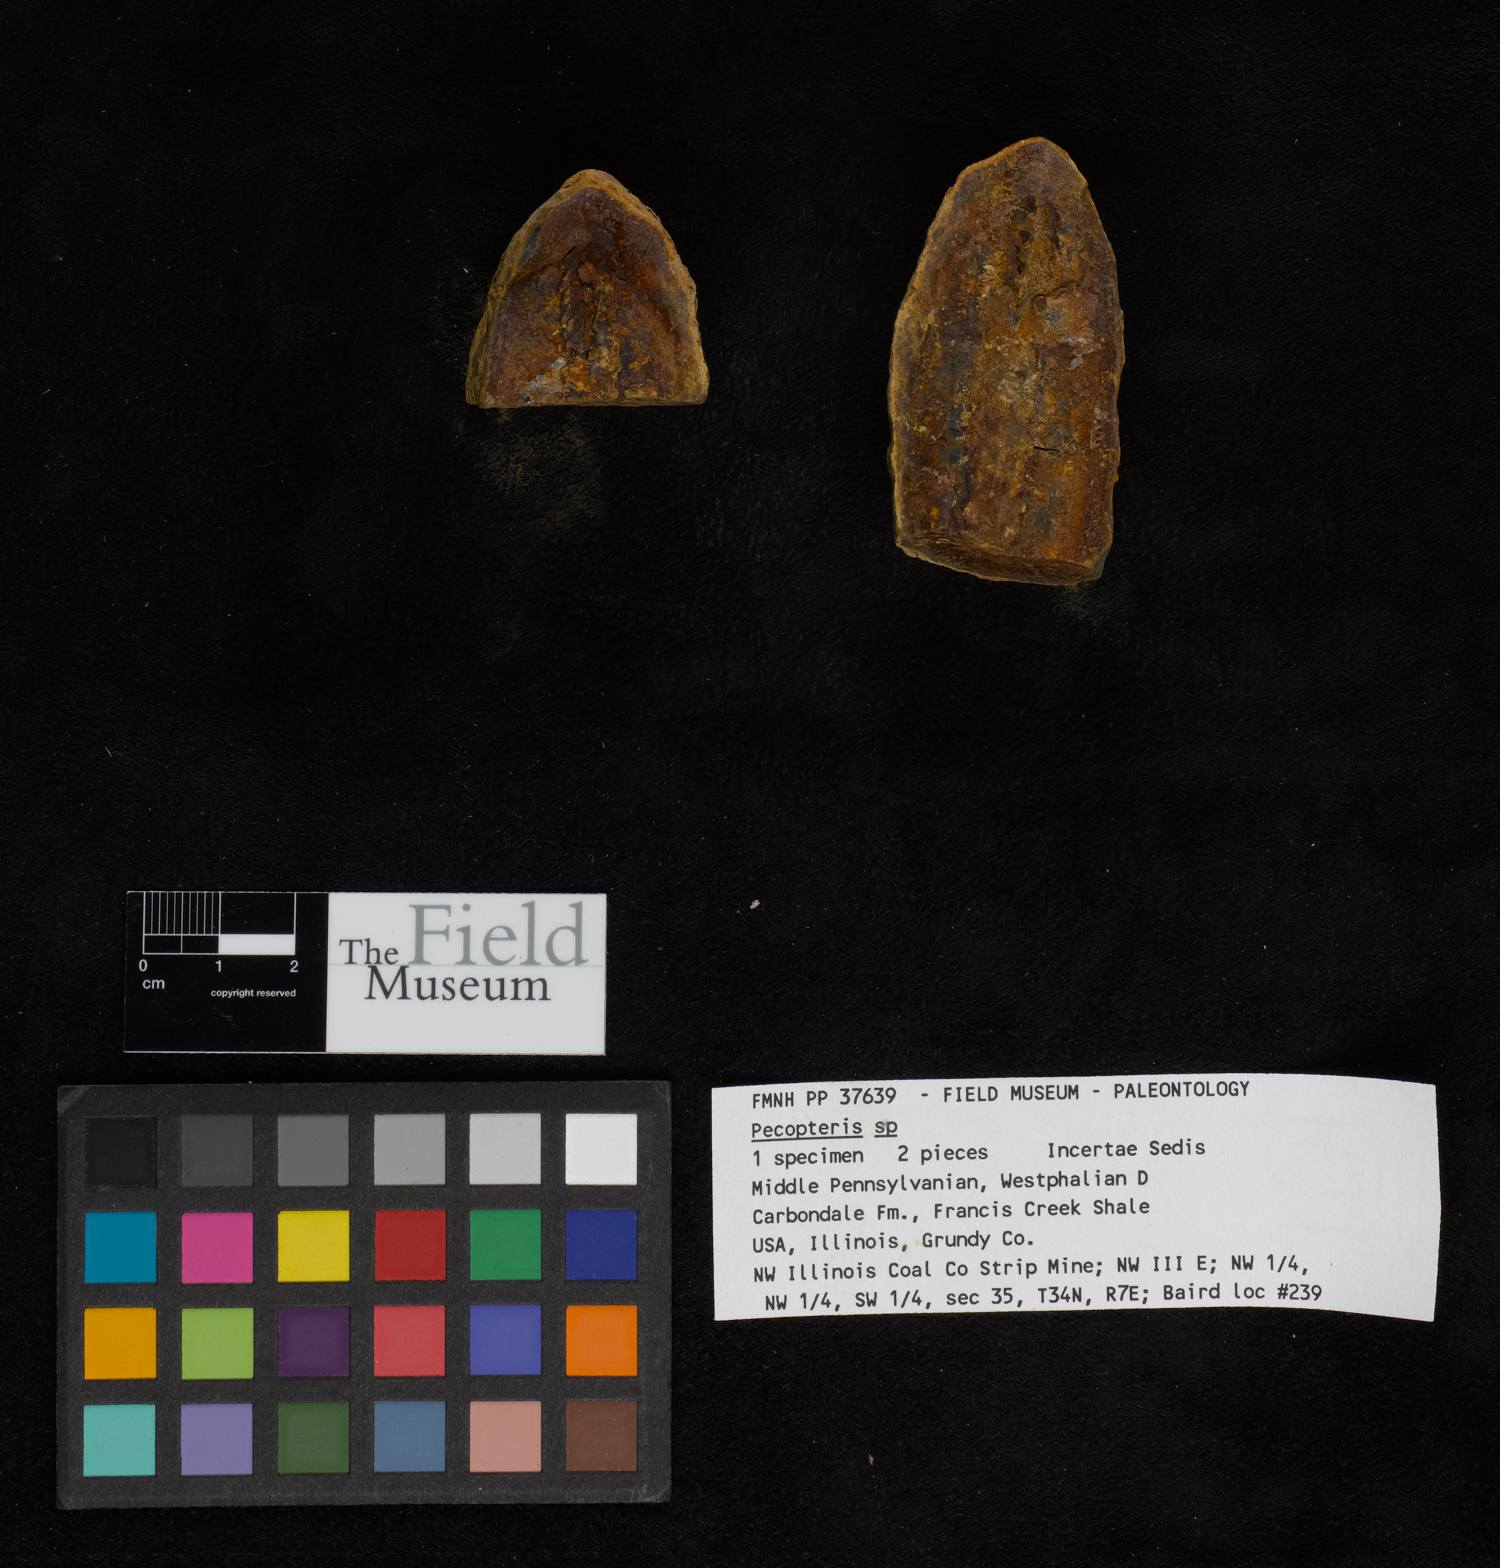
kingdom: Plantae
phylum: Tracheophyta
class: Polypodiopsida
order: Marattiales
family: Asterothecaceae
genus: Pecopteris
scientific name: Pecopteris
